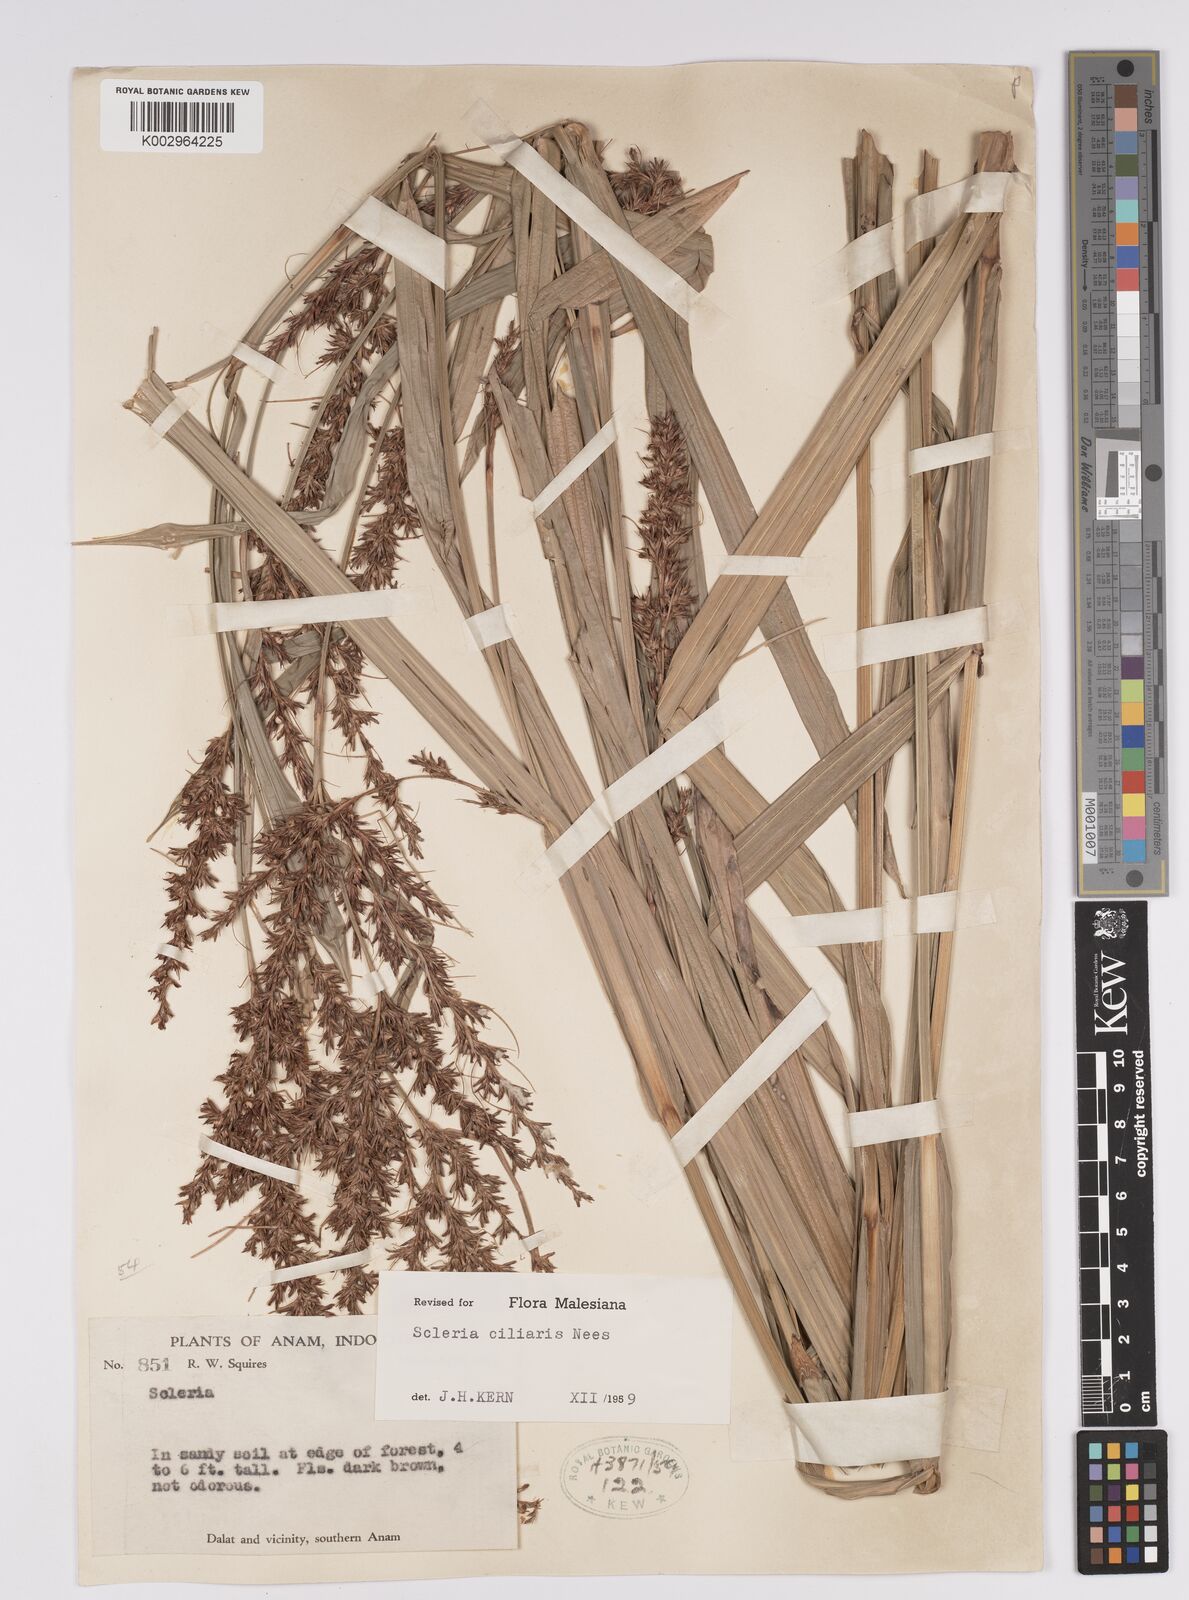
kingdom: Plantae
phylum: Tracheophyta
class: Liliopsida
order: Poales
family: Cyperaceae
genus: Scleria
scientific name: Scleria ciliaris
